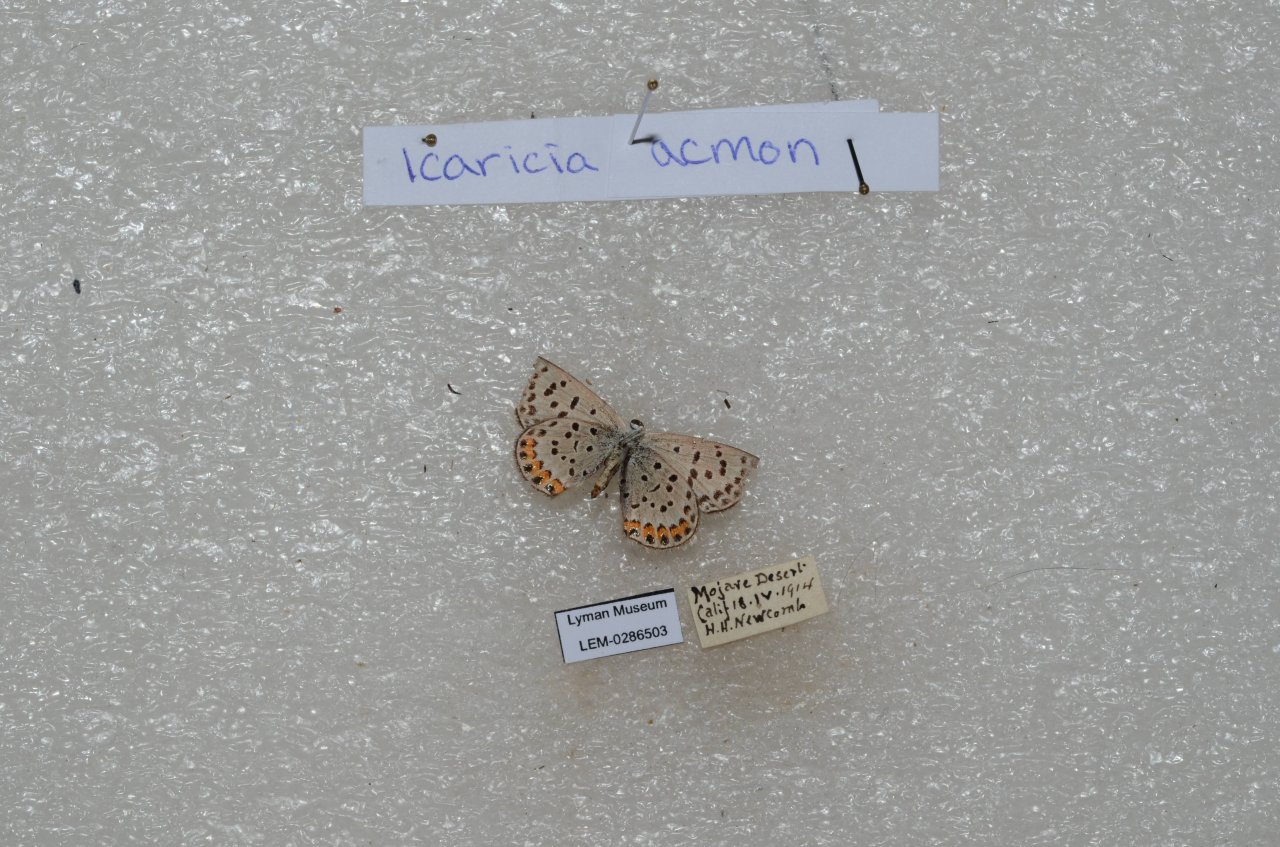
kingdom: Animalia
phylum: Arthropoda
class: Insecta
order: Lepidoptera
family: Lycaenidae
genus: Plebejus
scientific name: Plebejus acmon
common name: Acmon Blue
